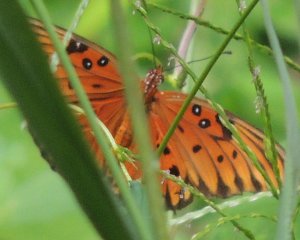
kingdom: Animalia
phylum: Arthropoda
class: Insecta
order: Lepidoptera
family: Nymphalidae
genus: Dione
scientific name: Dione vanillae
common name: Gulf Fritillary
